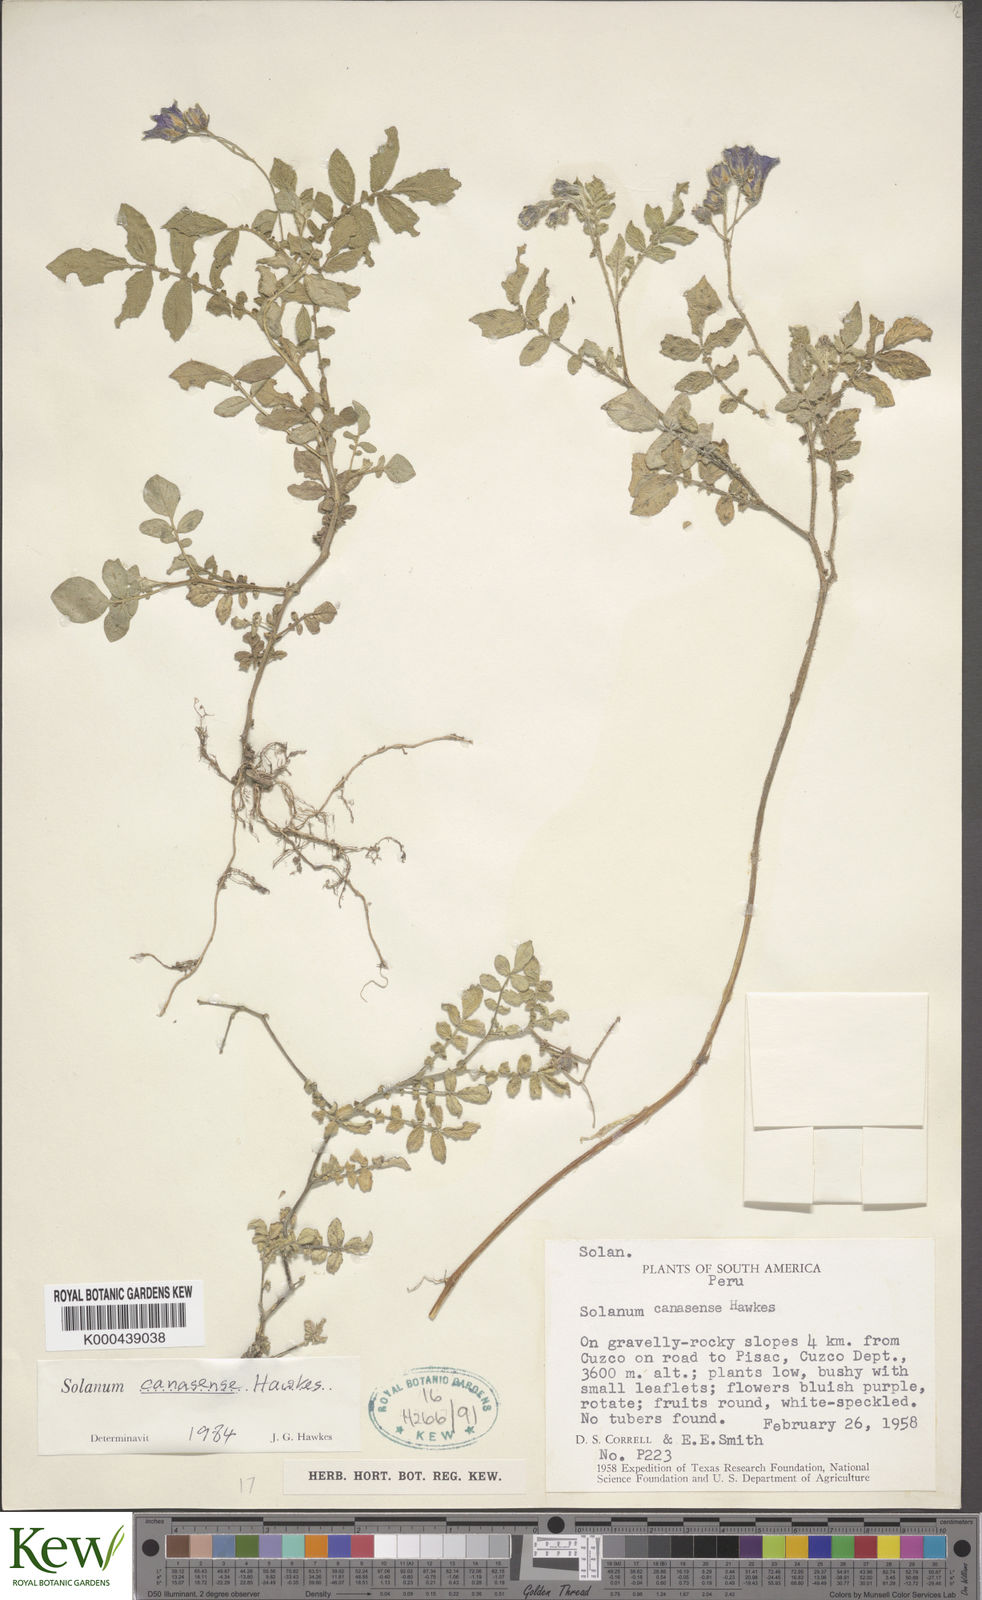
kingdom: Plantae
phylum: Tracheophyta
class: Magnoliopsida
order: Solanales
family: Solanaceae
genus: Solanum
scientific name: Solanum candolleanum
